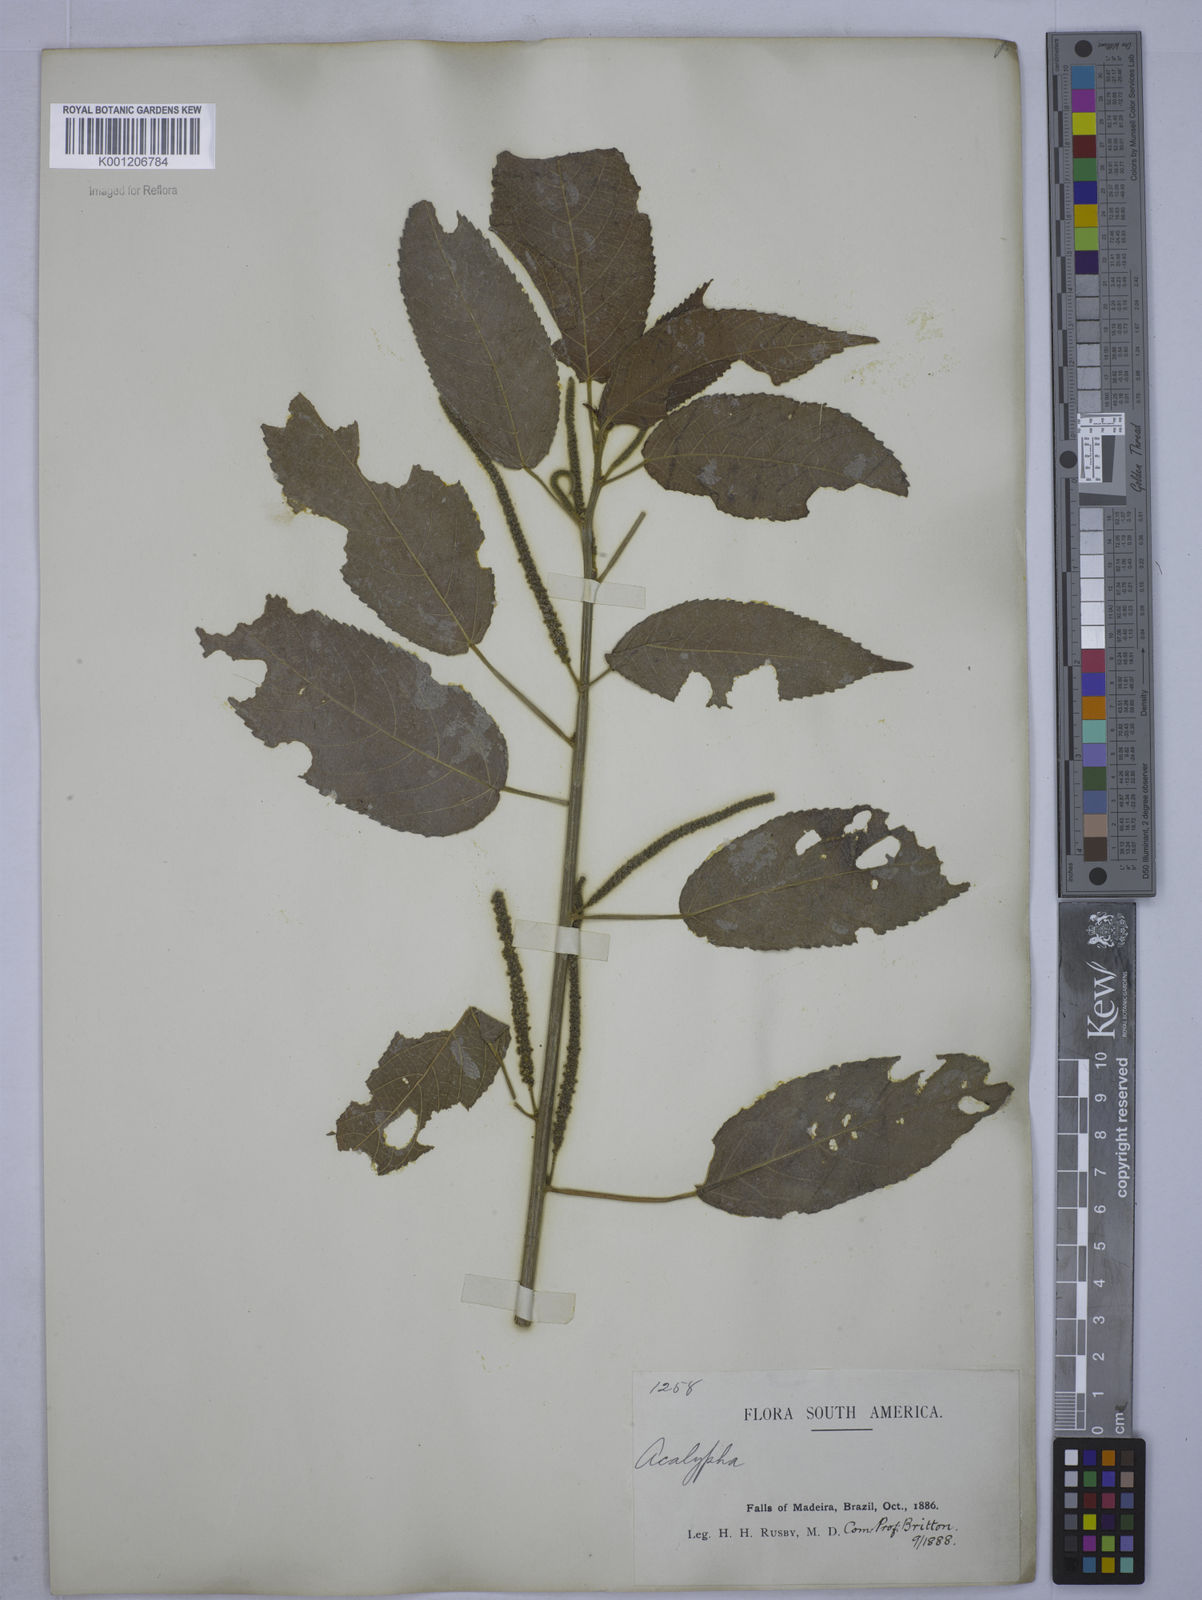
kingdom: Plantae
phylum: Tracheophyta
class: Magnoliopsida
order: Malpighiales
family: Euphorbiaceae
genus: Acalypha
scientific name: Acalypha
